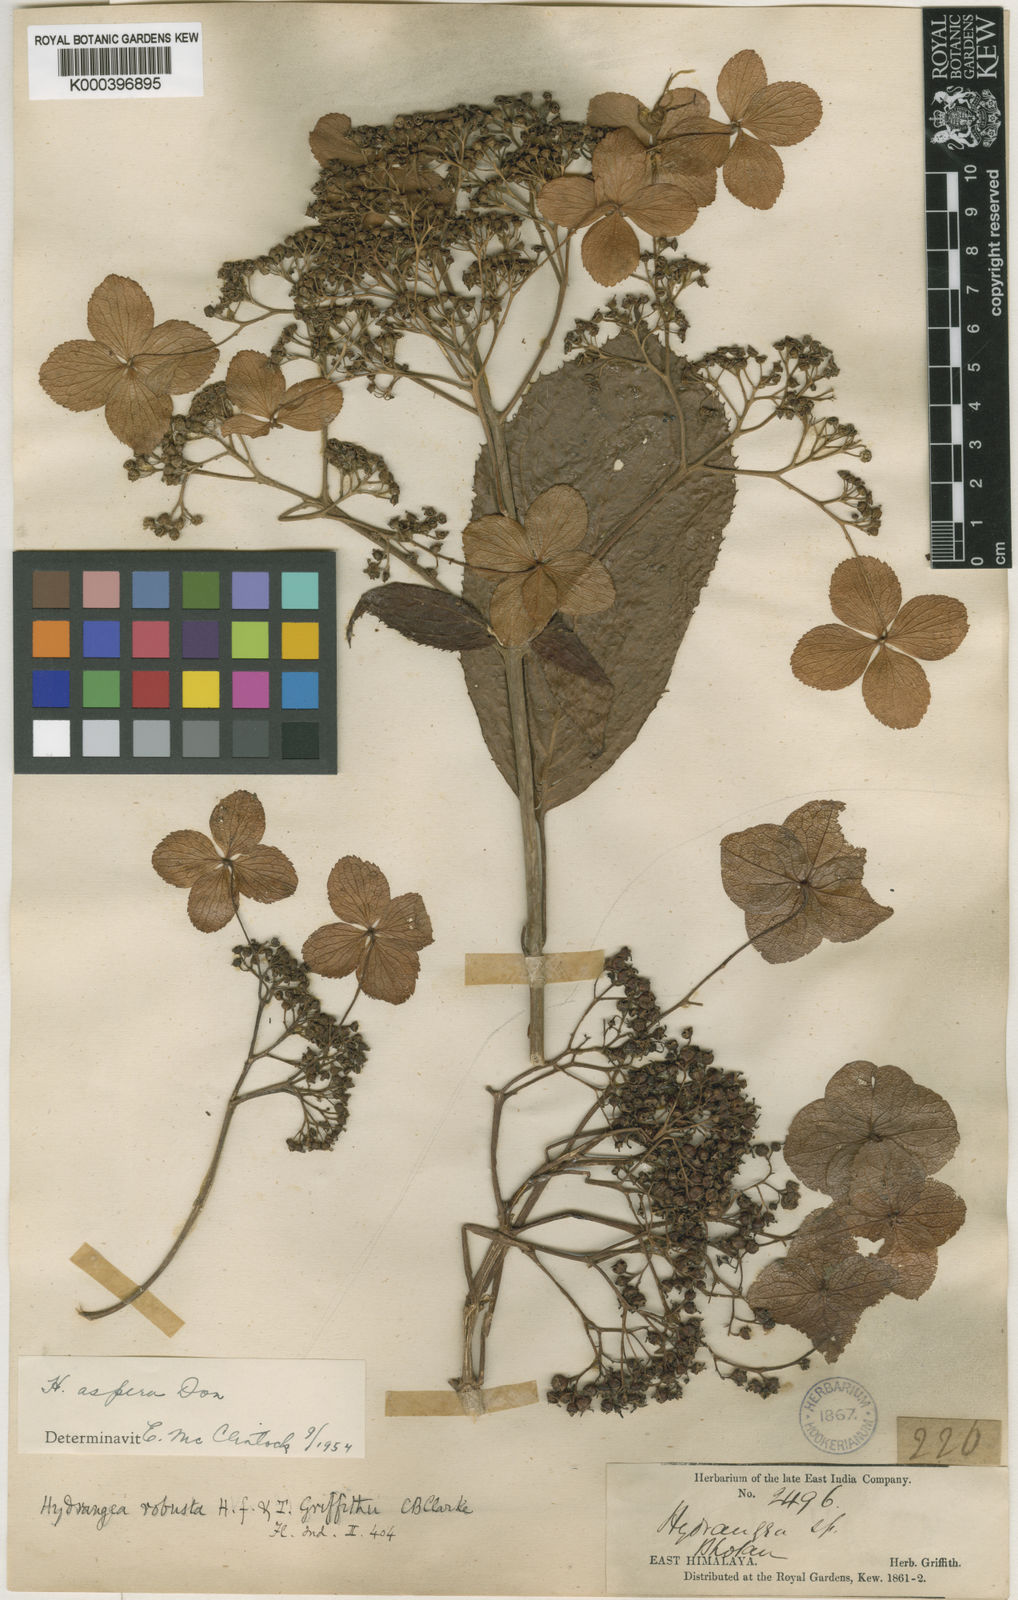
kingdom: Plantae
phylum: Tracheophyta
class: Magnoliopsida
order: Cornales
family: Hydrangeaceae
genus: Hydrangea
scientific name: Hydrangea aspera
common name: Rough-leaf hydrangea
